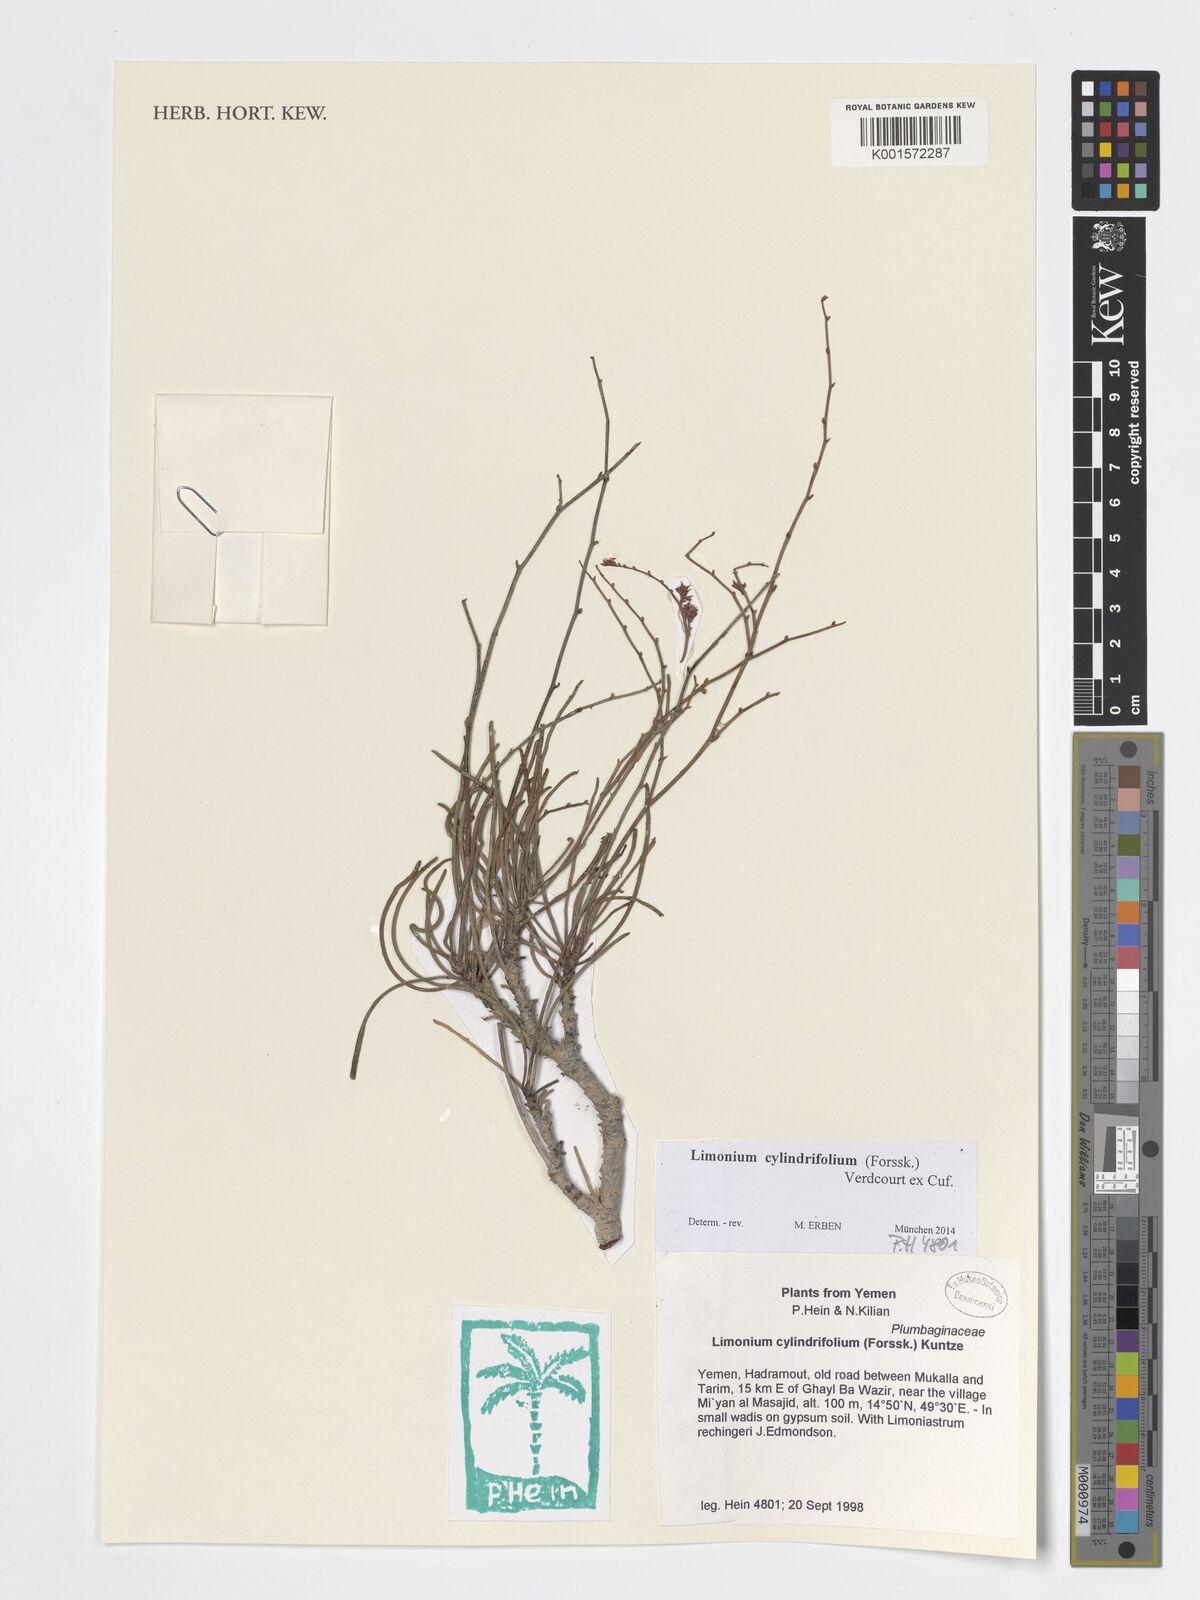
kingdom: Plantae
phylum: Tracheophyta
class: Magnoliopsida
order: Caryophyllales
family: Plumbaginaceae
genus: Limonium
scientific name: Limonium cylindrifolium
